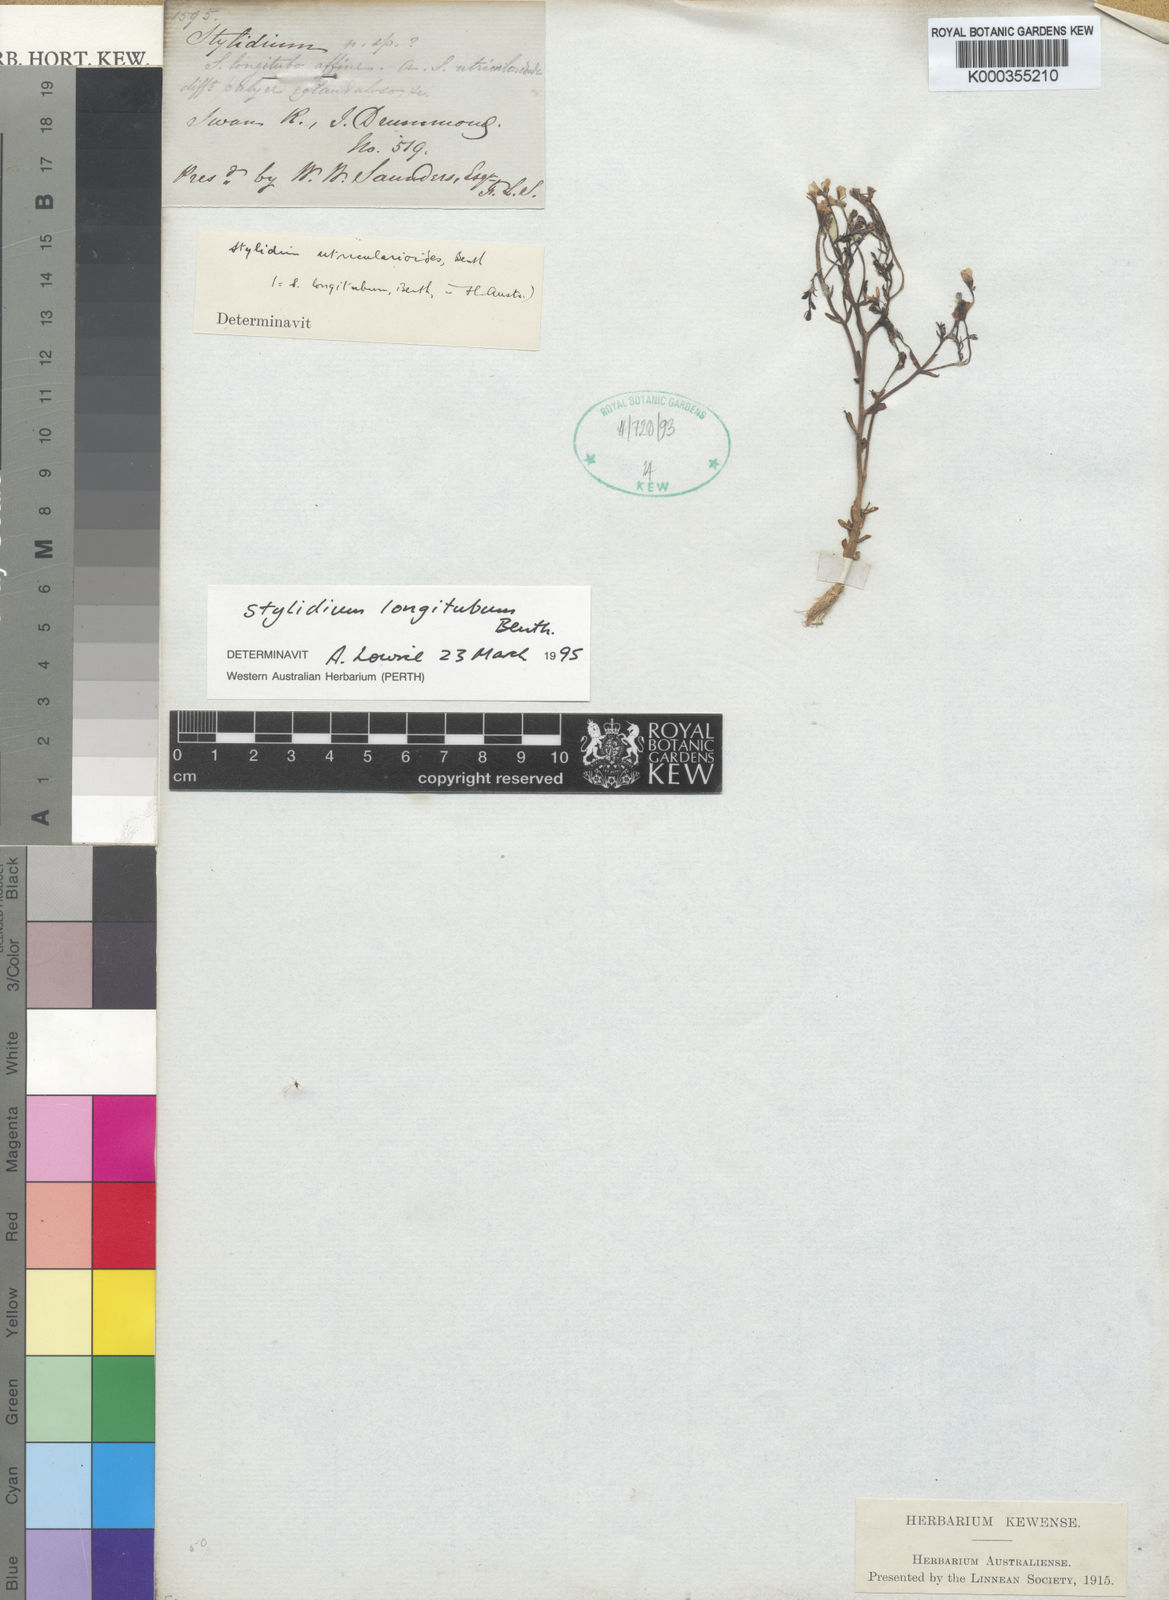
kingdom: Plantae
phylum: Tracheophyta
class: Magnoliopsida
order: Asterales
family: Stylidiaceae
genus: Stylidium
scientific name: Stylidium longitubum
